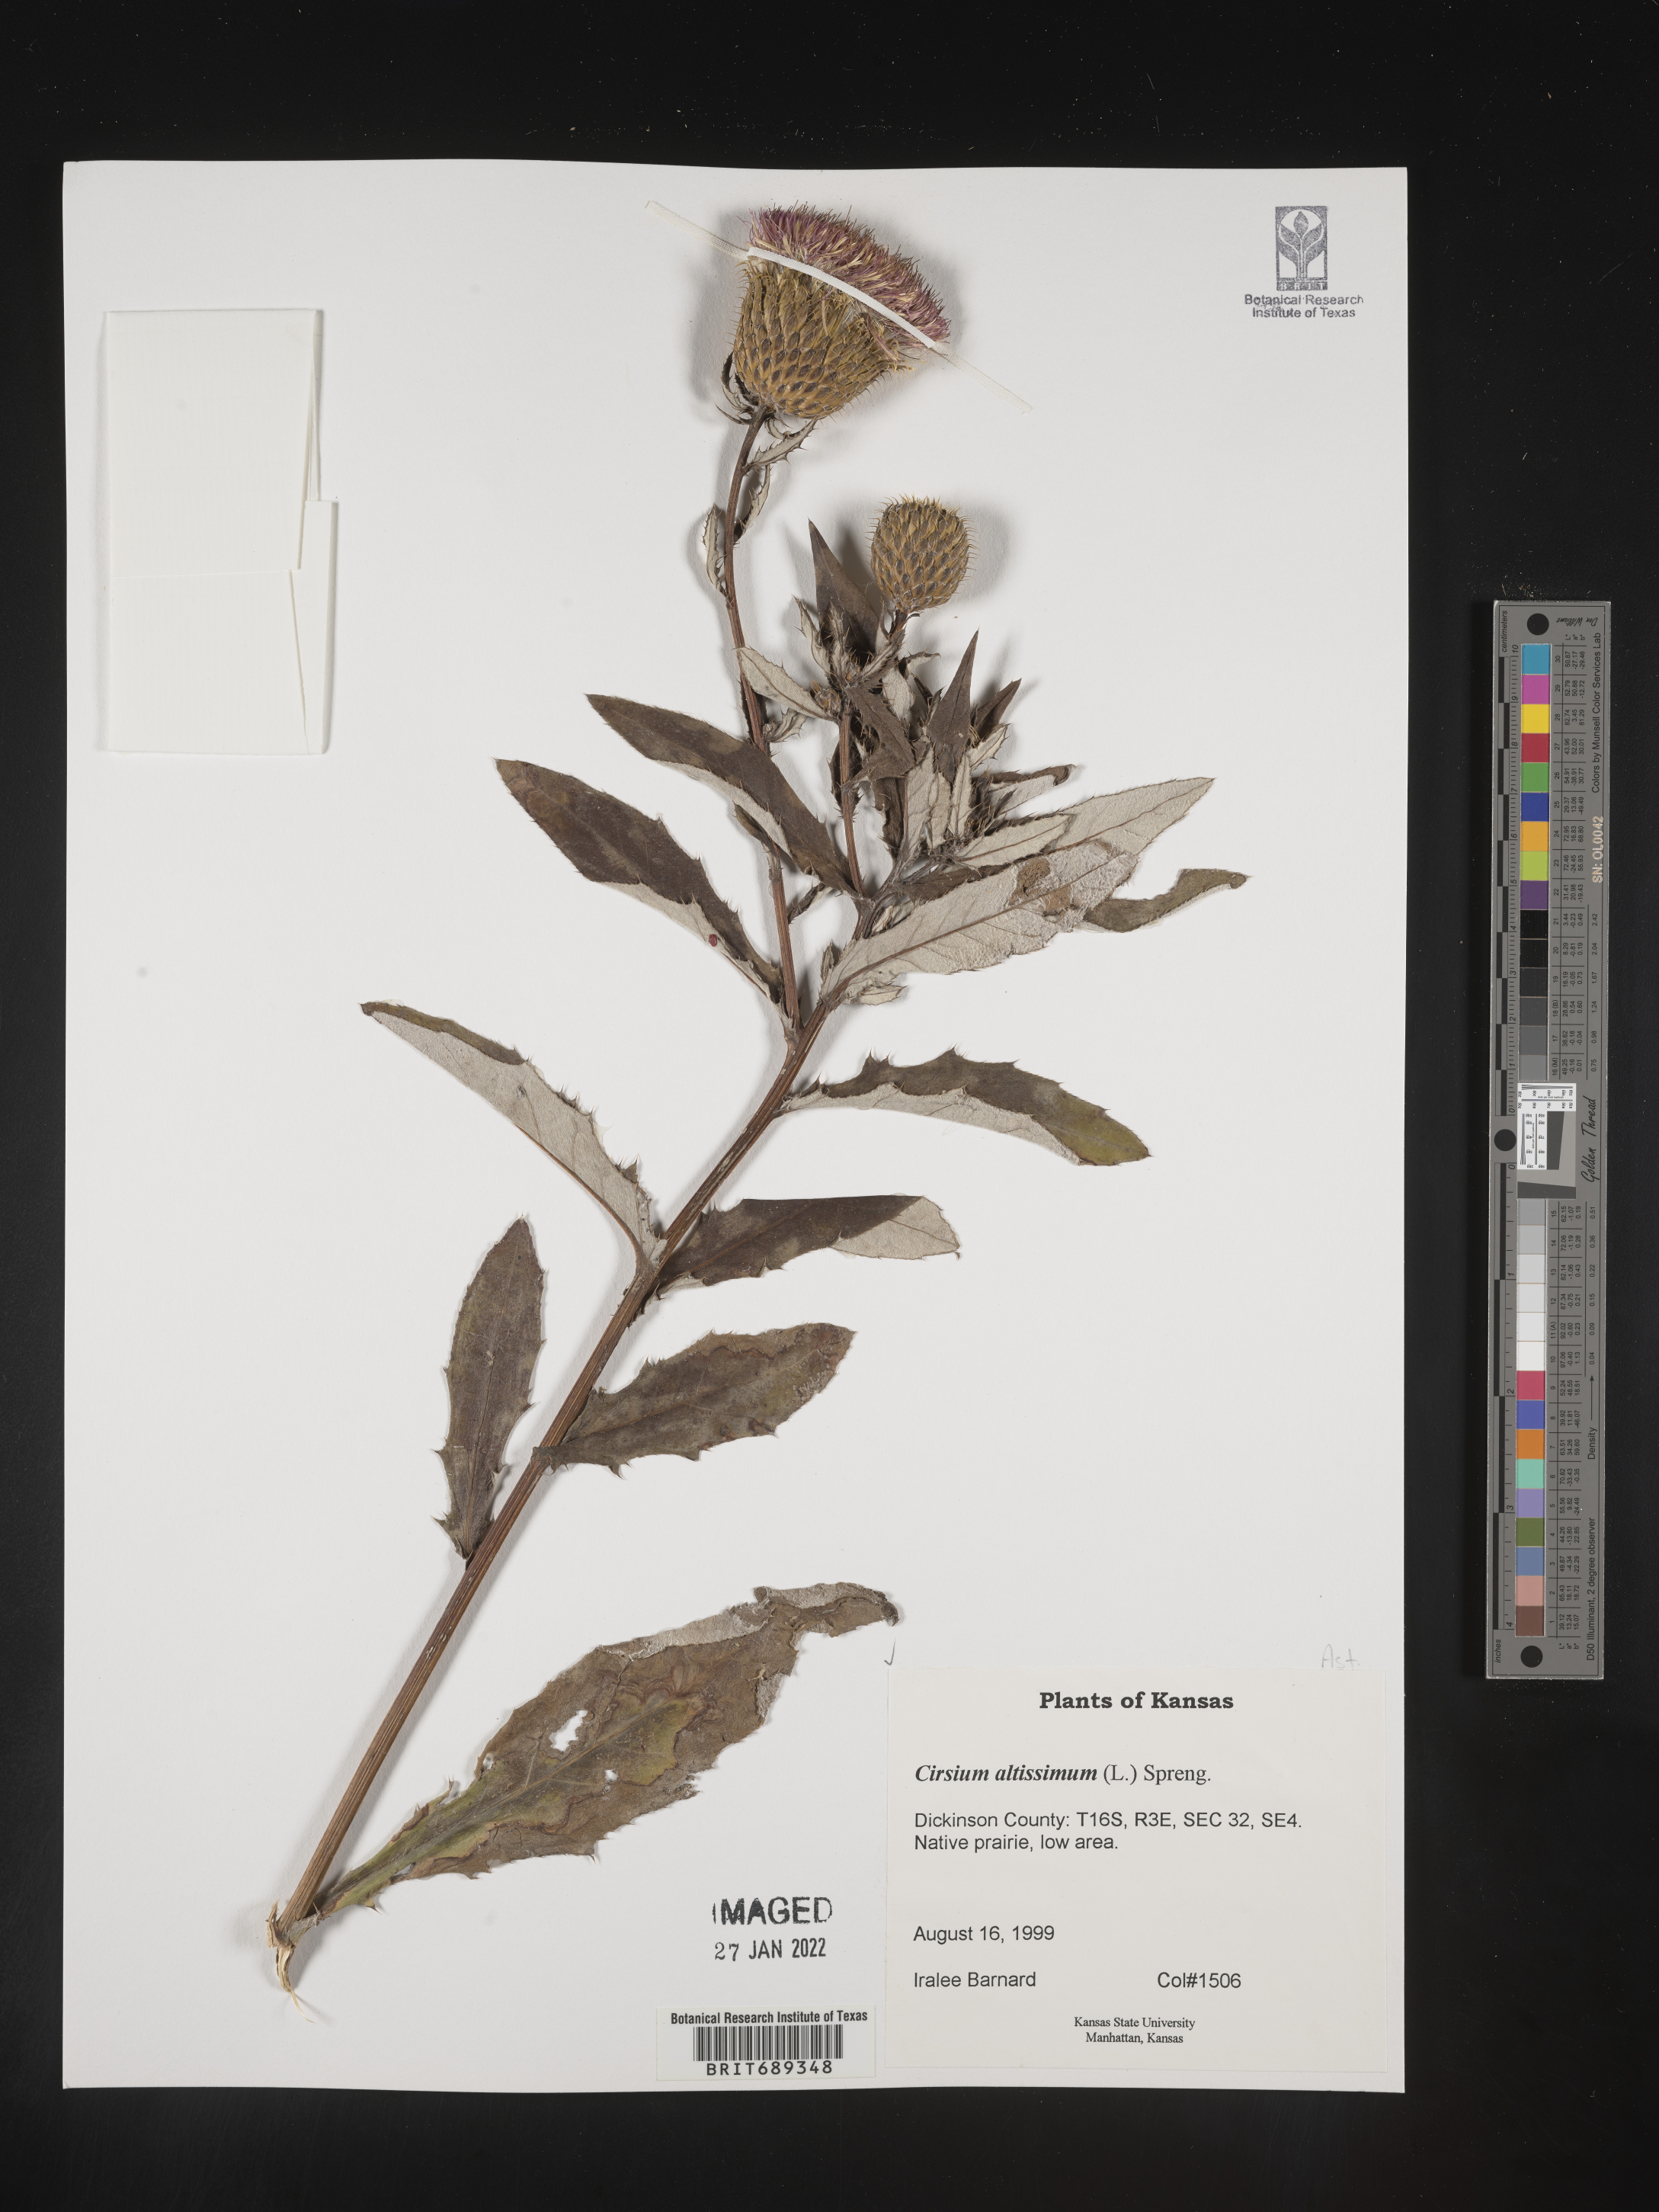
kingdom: Plantae
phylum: Tracheophyta
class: Magnoliopsida
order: Asterales
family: Asteraceae
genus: Cirsium
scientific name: Cirsium altissimum
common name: Roadside thistle
